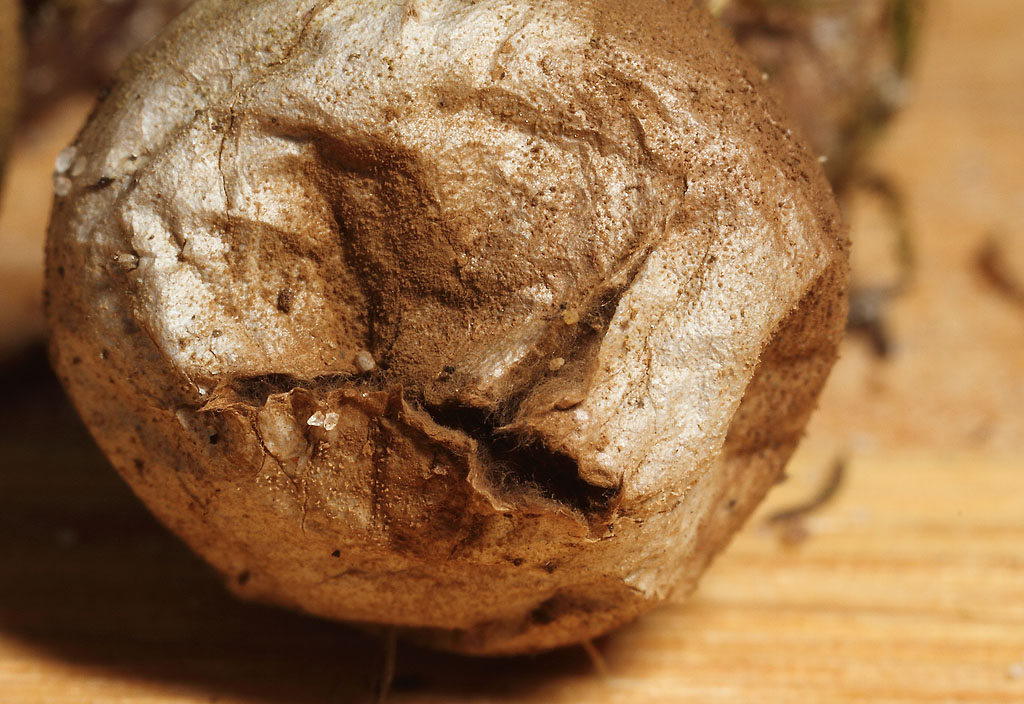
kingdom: Fungi
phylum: Basidiomycota
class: Agaricomycetes
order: Agaricales
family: Lycoperdaceae
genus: Lycoperdon
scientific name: Lycoperdon lividum
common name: mark-støvbold
